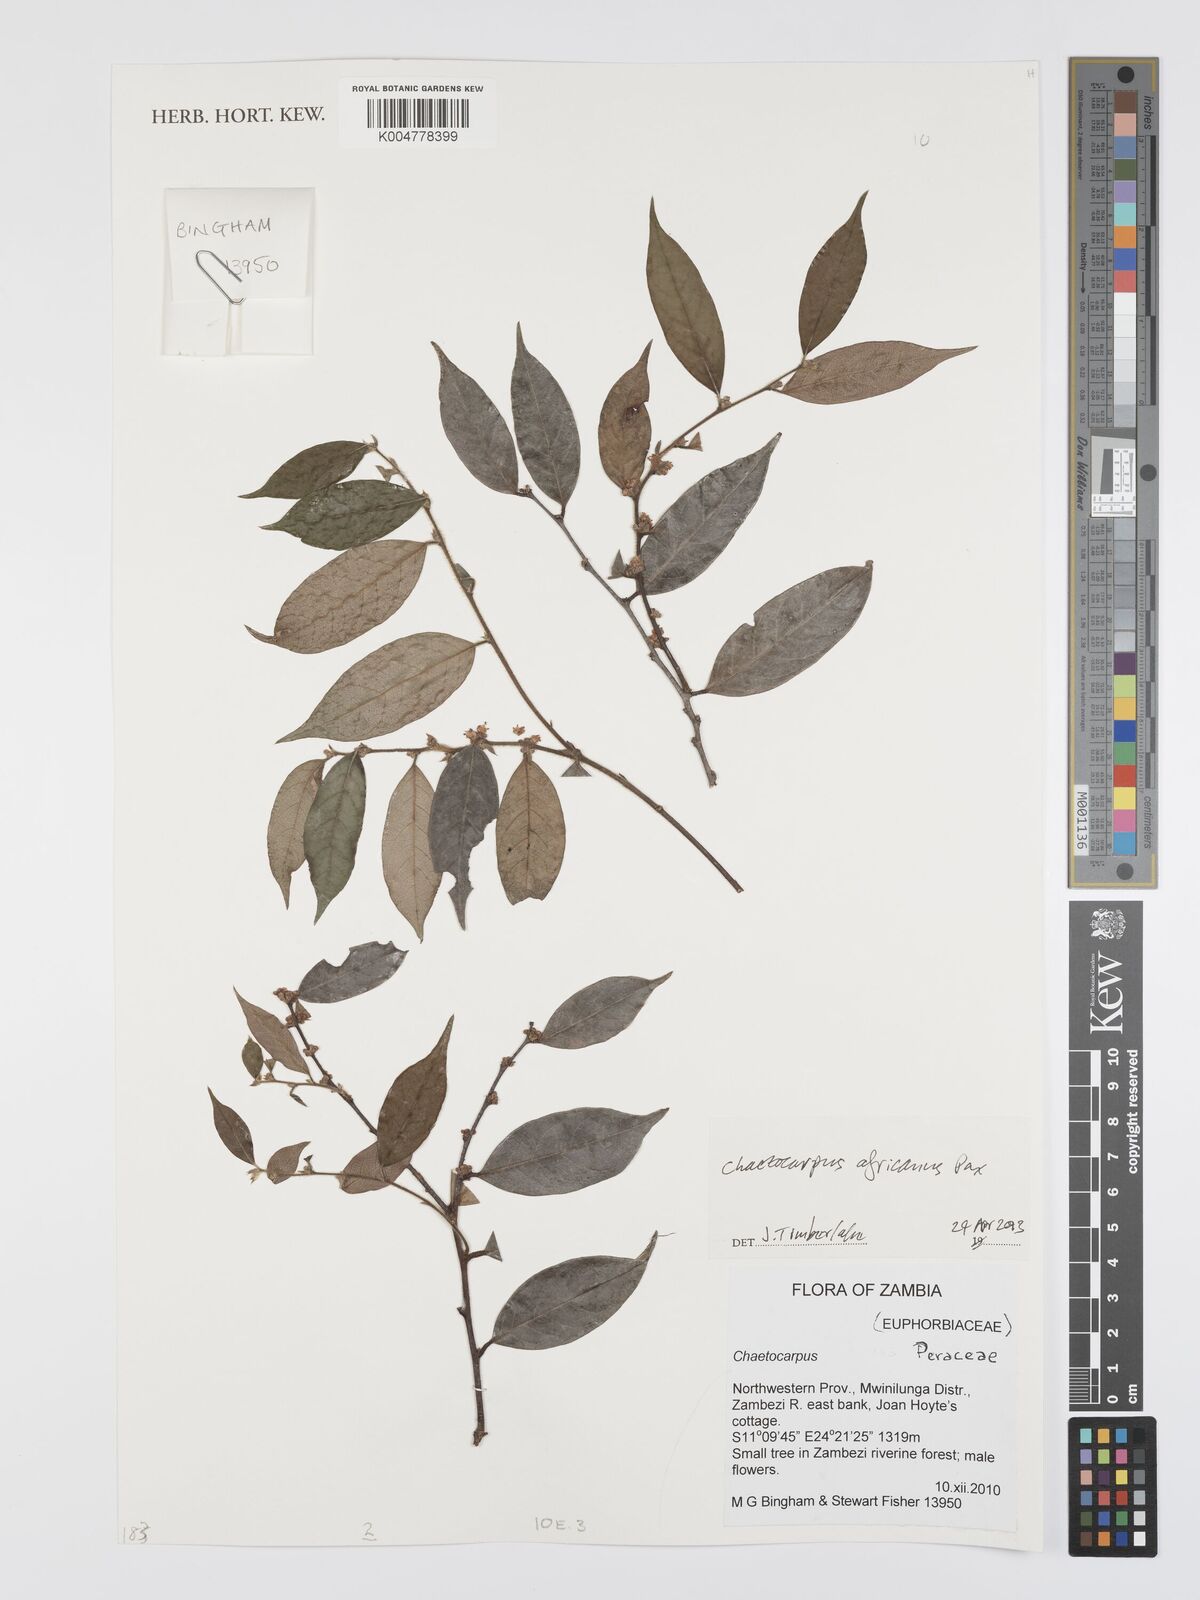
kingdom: Plantae
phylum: Tracheophyta
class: Magnoliopsida
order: Malpighiales
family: Peraceae
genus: Chaetocarpus
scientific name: Chaetocarpus africanus
